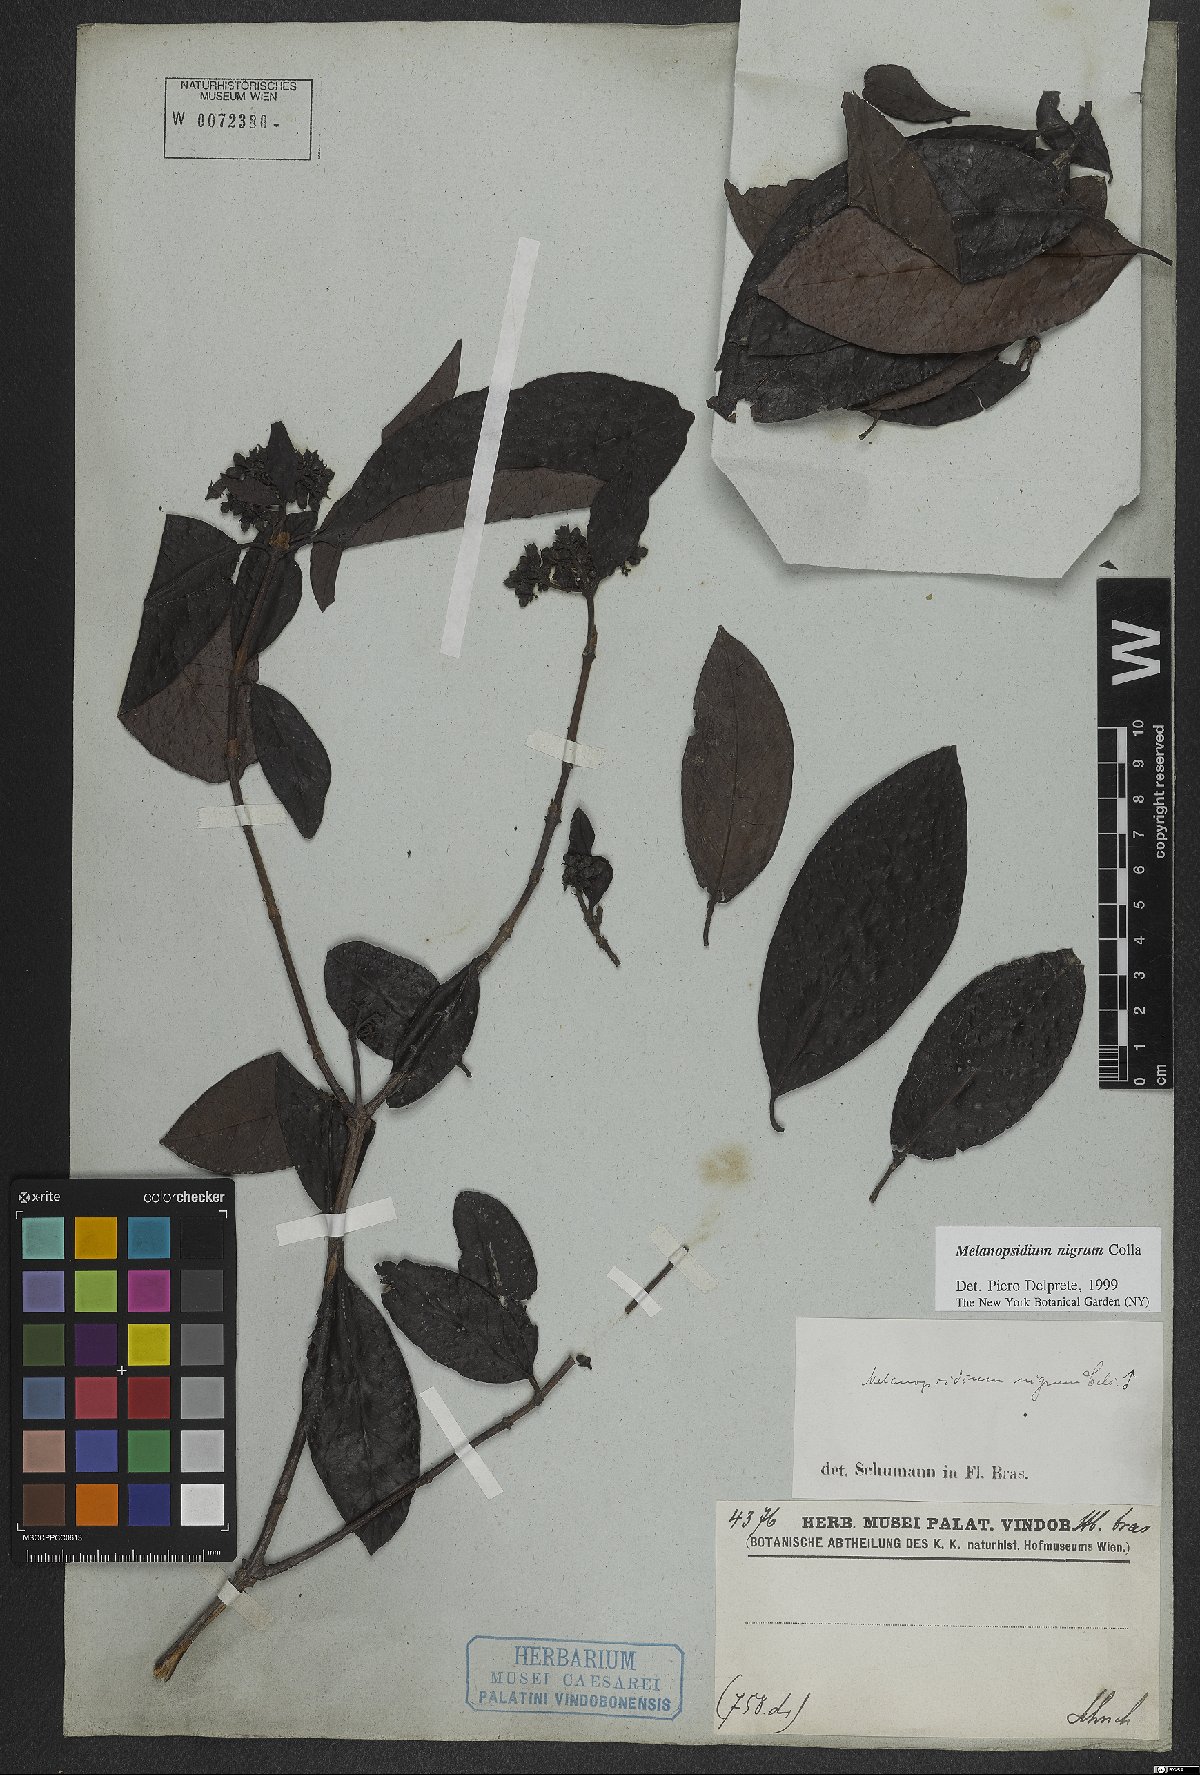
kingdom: Plantae
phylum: Tracheophyta
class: Magnoliopsida
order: Gentianales
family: Rubiaceae
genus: Melanopsidium
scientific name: Melanopsidium nigrum
